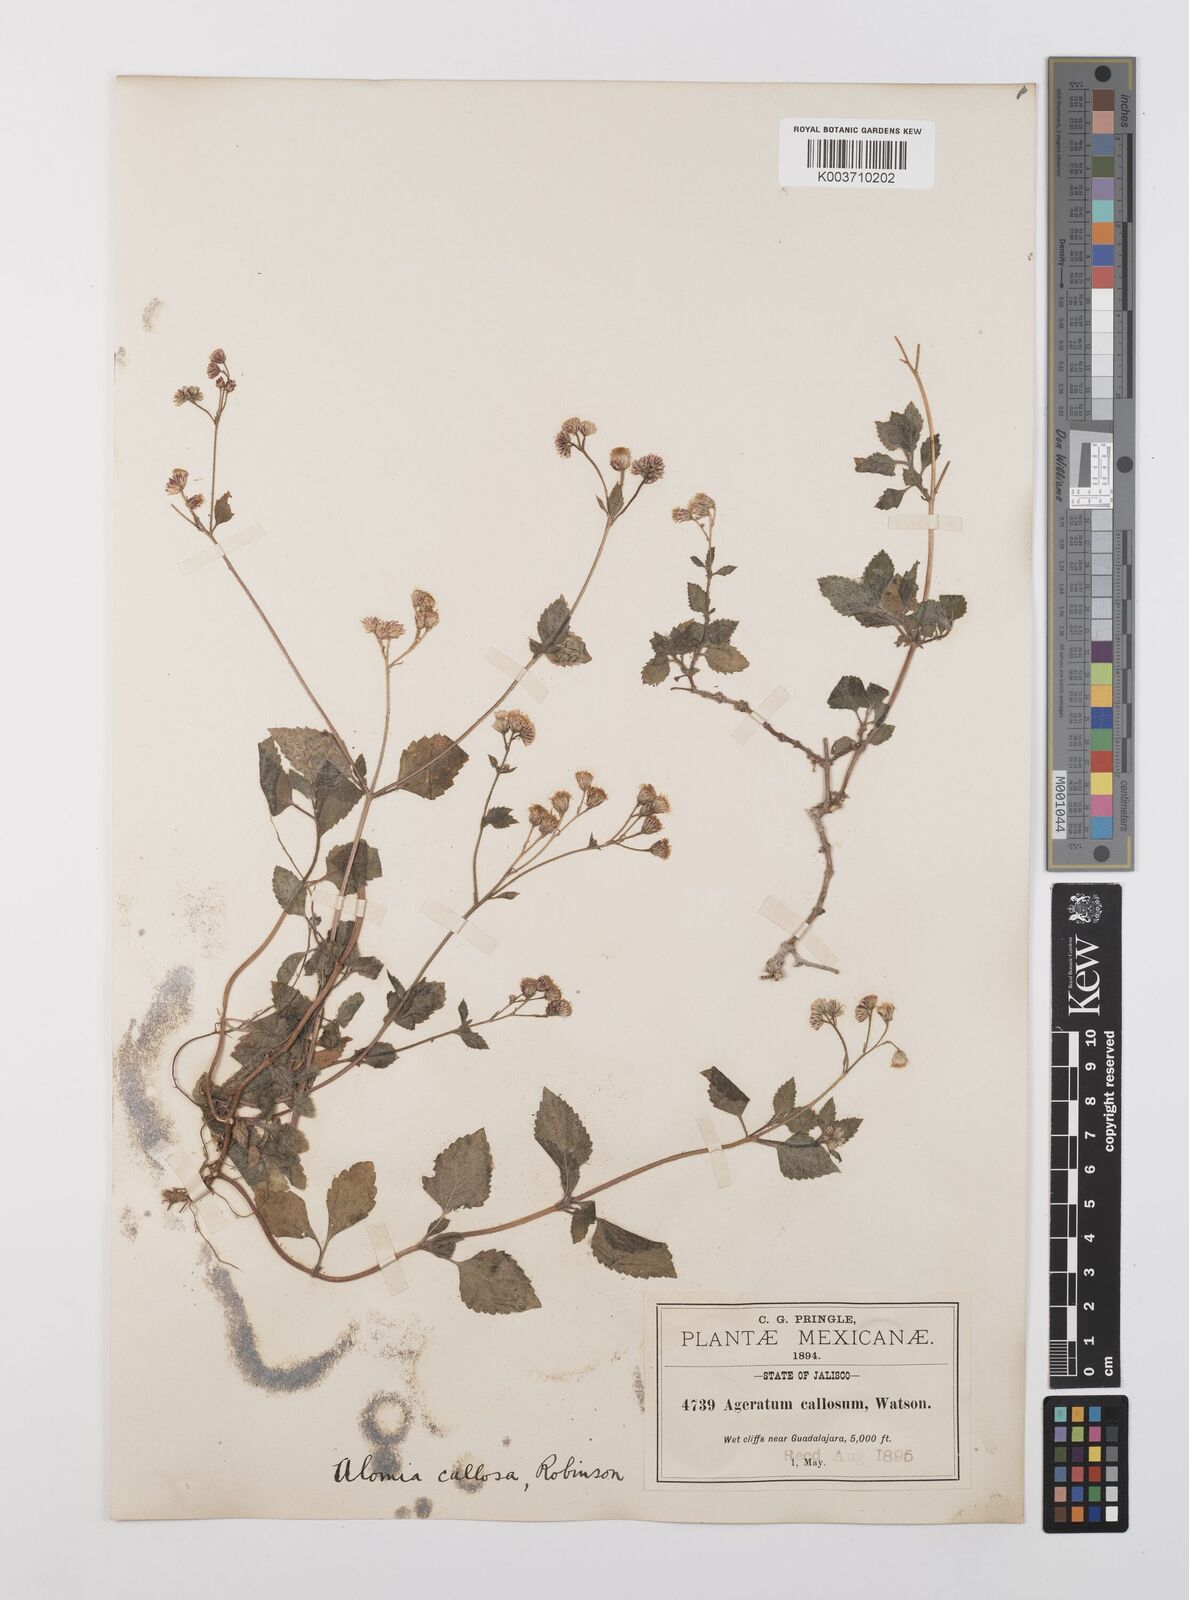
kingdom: Plantae
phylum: Tracheophyta
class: Magnoliopsida
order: Asterales
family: Asteraceae
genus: Alomia
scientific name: Alomia callosa
